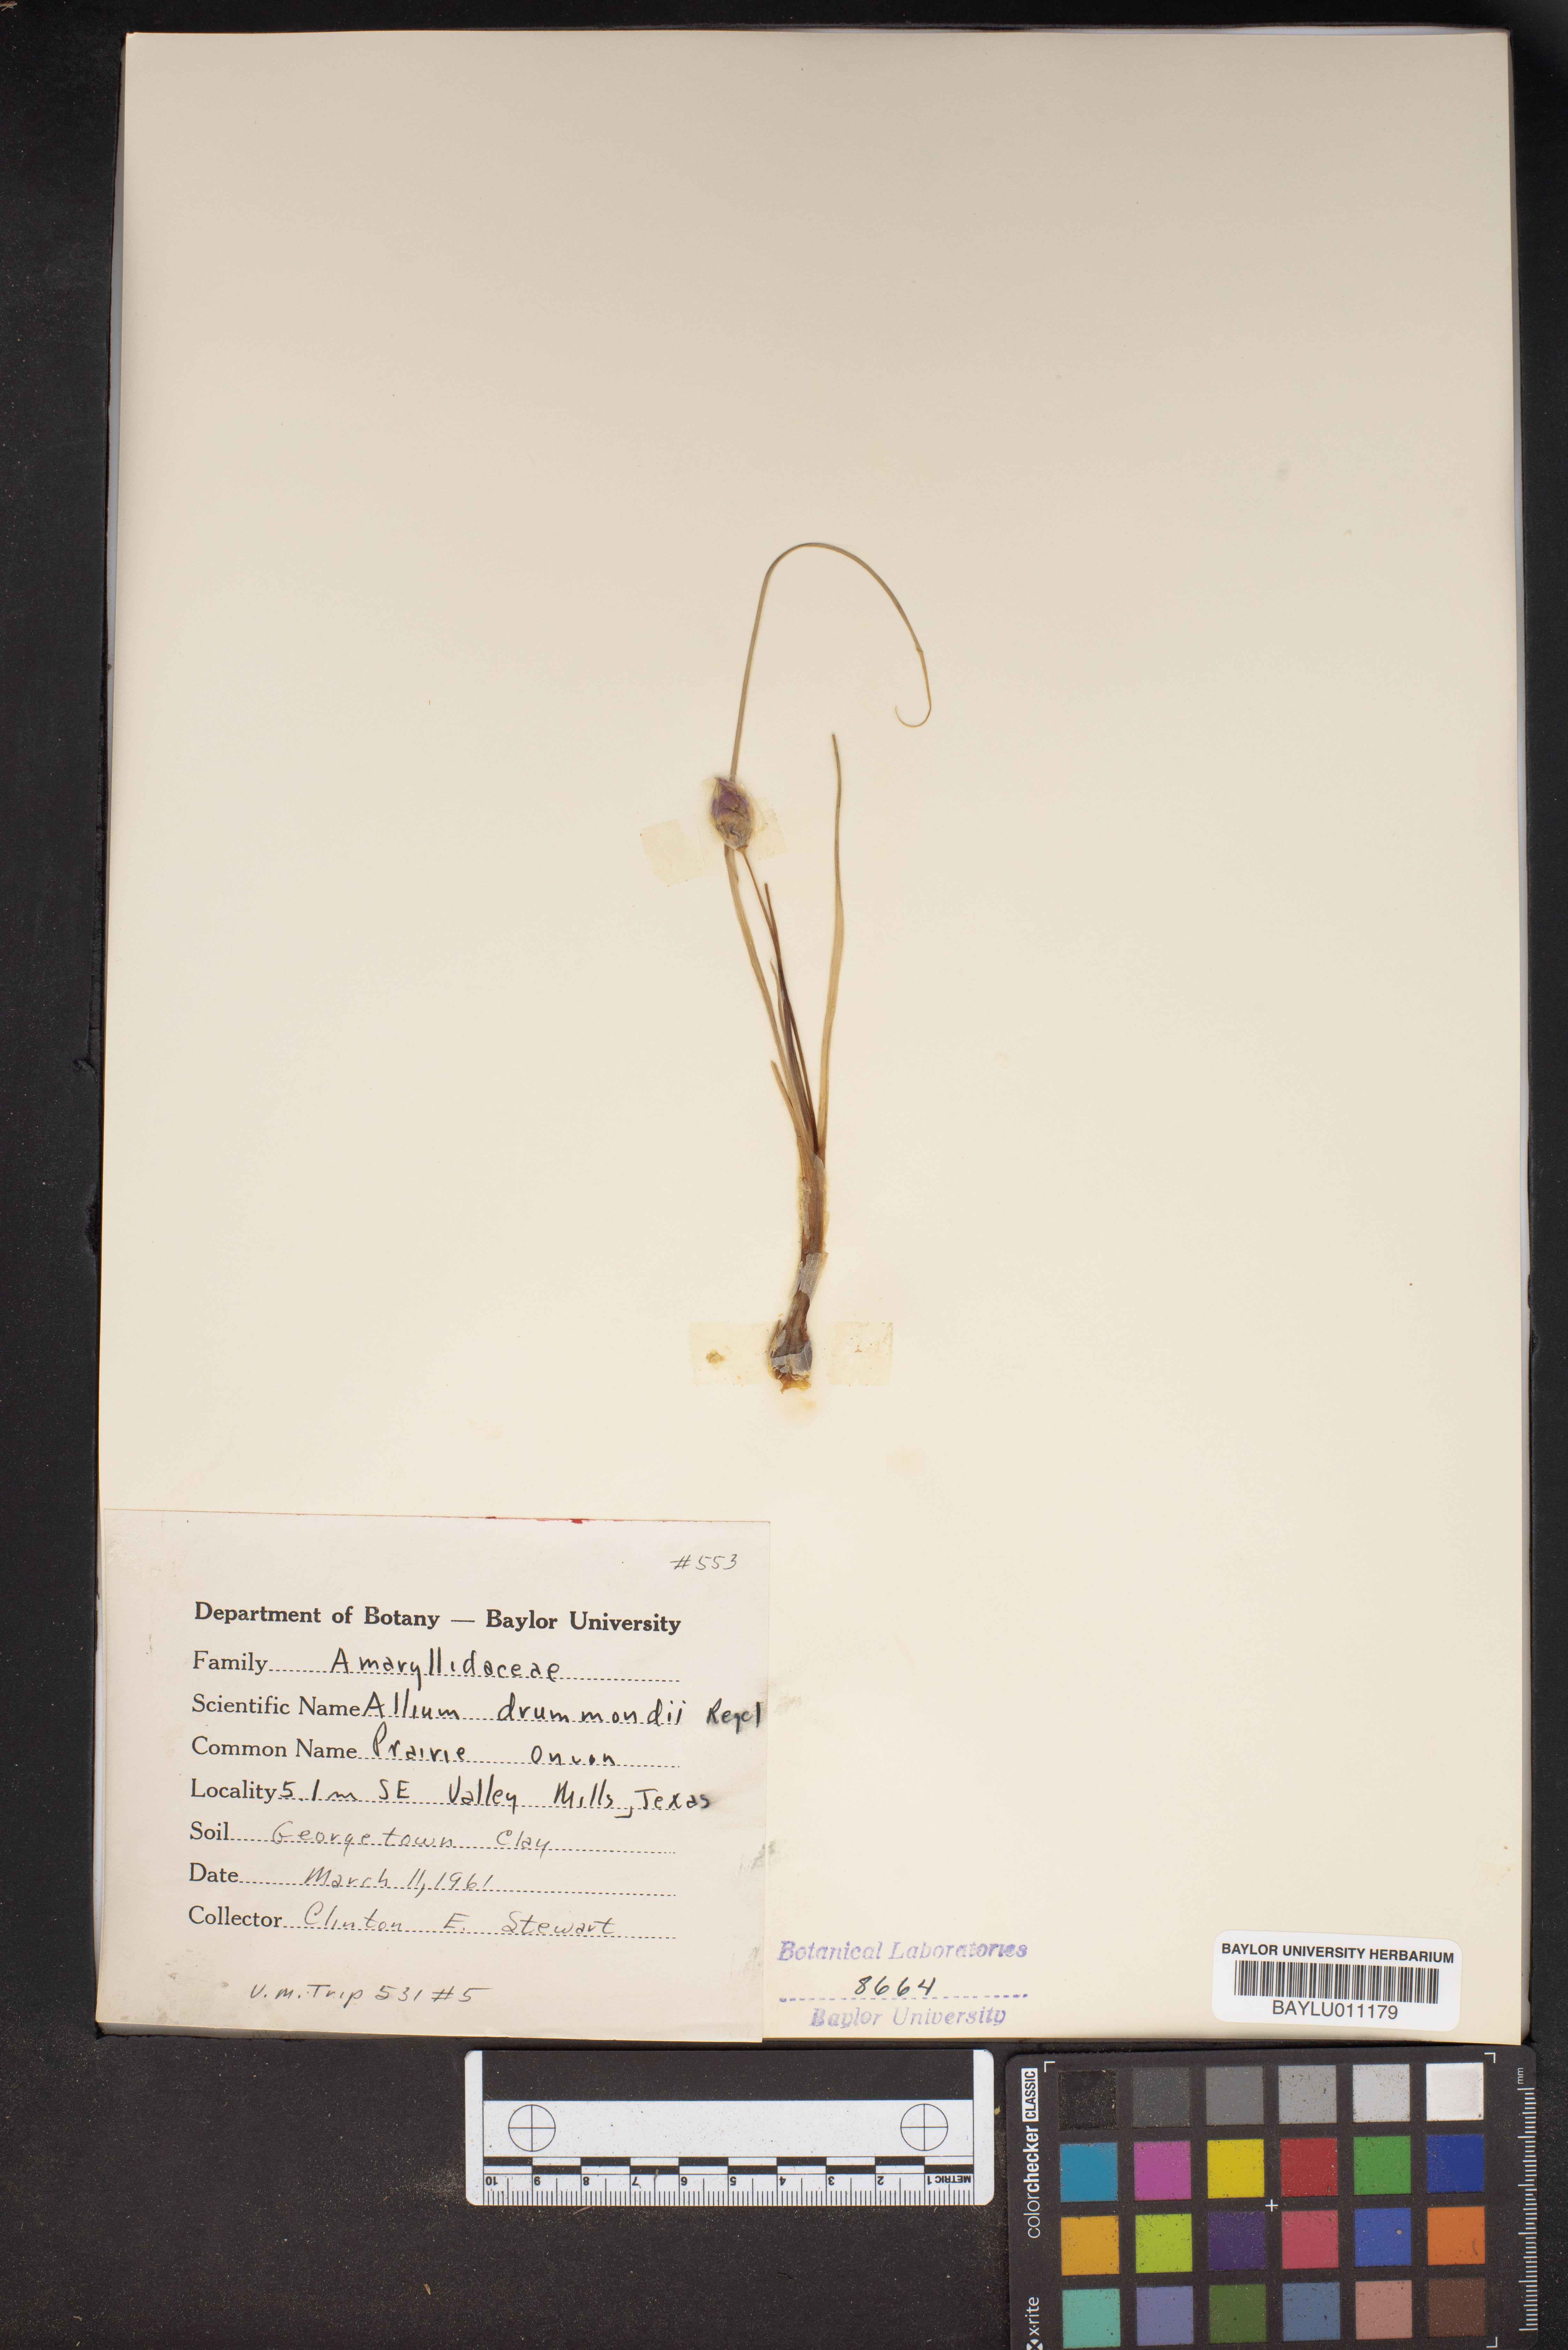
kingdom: Plantae
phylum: Tracheophyta
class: Liliopsida
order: Asparagales
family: Amaryllidaceae
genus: Allium
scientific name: Allium drummondii
